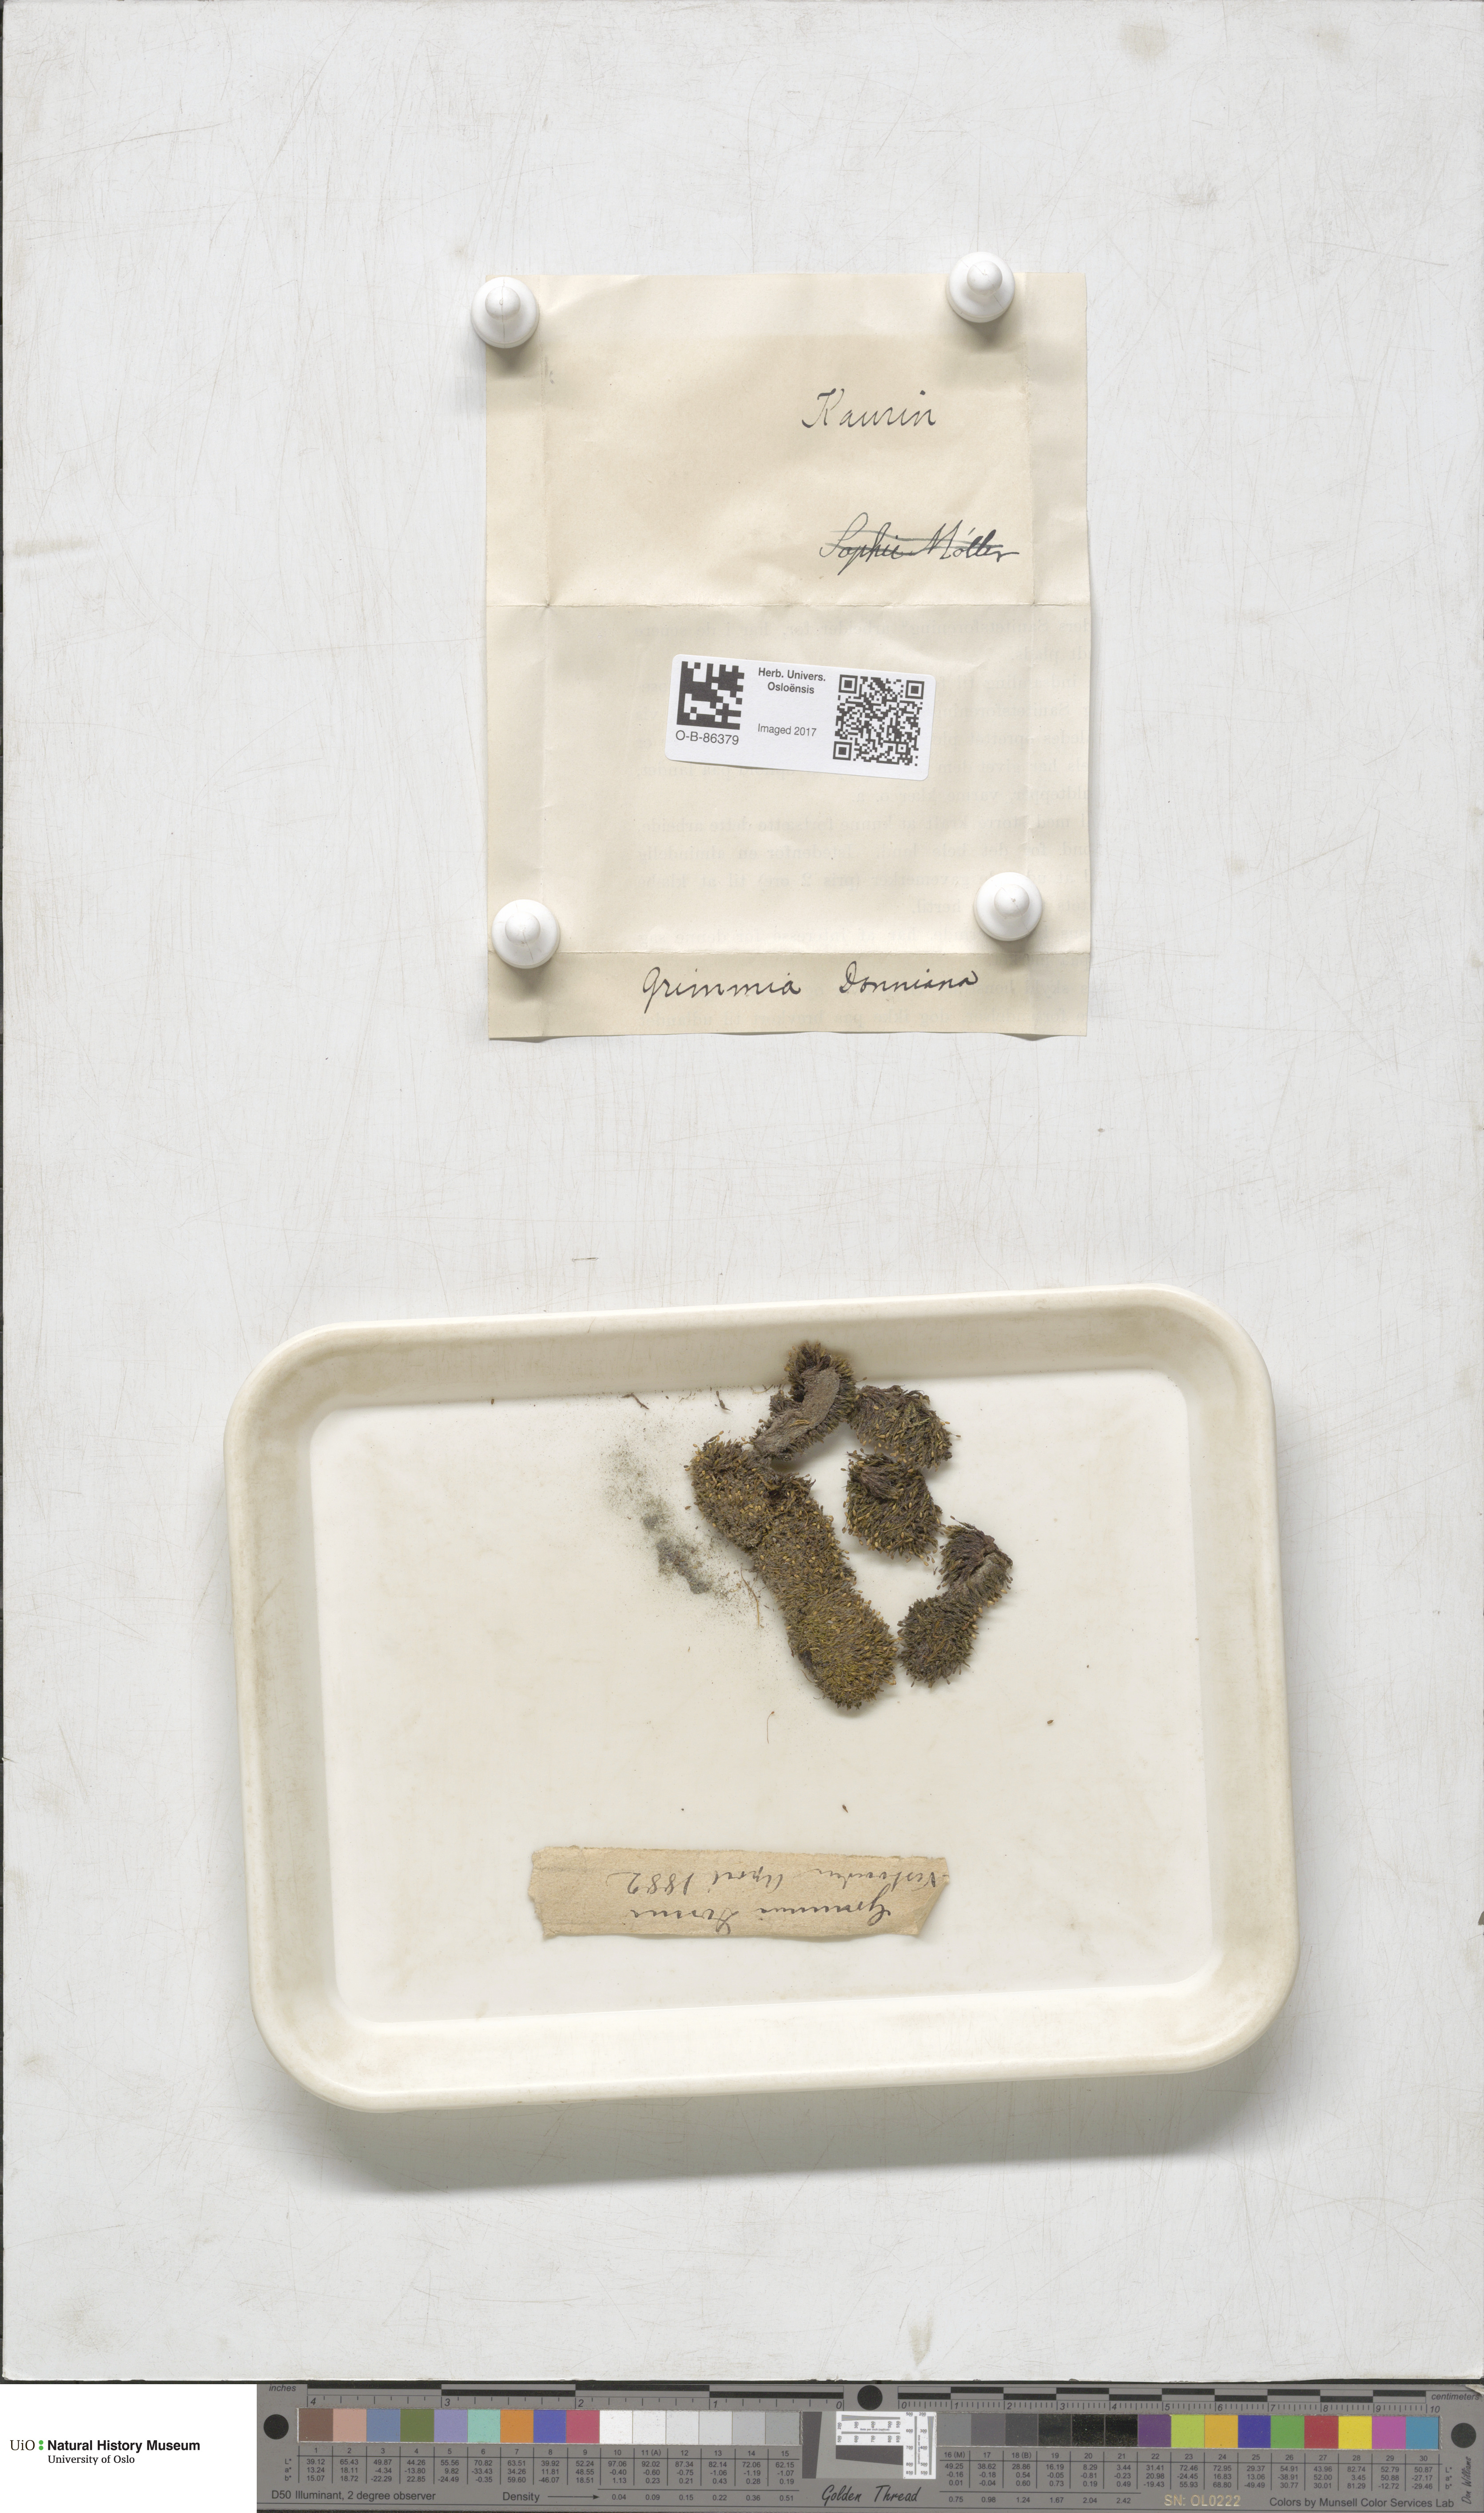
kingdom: Plantae
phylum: Bryophyta
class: Bryopsida
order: Grimmiales
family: Grimmiaceae
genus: Grimmia
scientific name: Grimmia donniana
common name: Donn's grimmia
